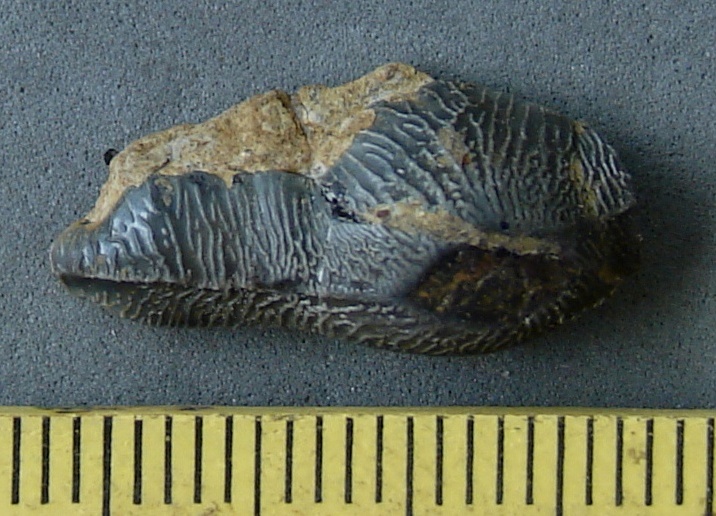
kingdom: Animalia
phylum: Chordata
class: Elasmobranchii
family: Acrodontidae
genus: Acrodus
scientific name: Acrodus nobilis
